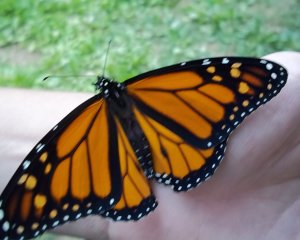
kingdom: Animalia
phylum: Arthropoda
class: Insecta
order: Lepidoptera
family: Nymphalidae
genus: Danaus
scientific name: Danaus plexippus
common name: Monarch
